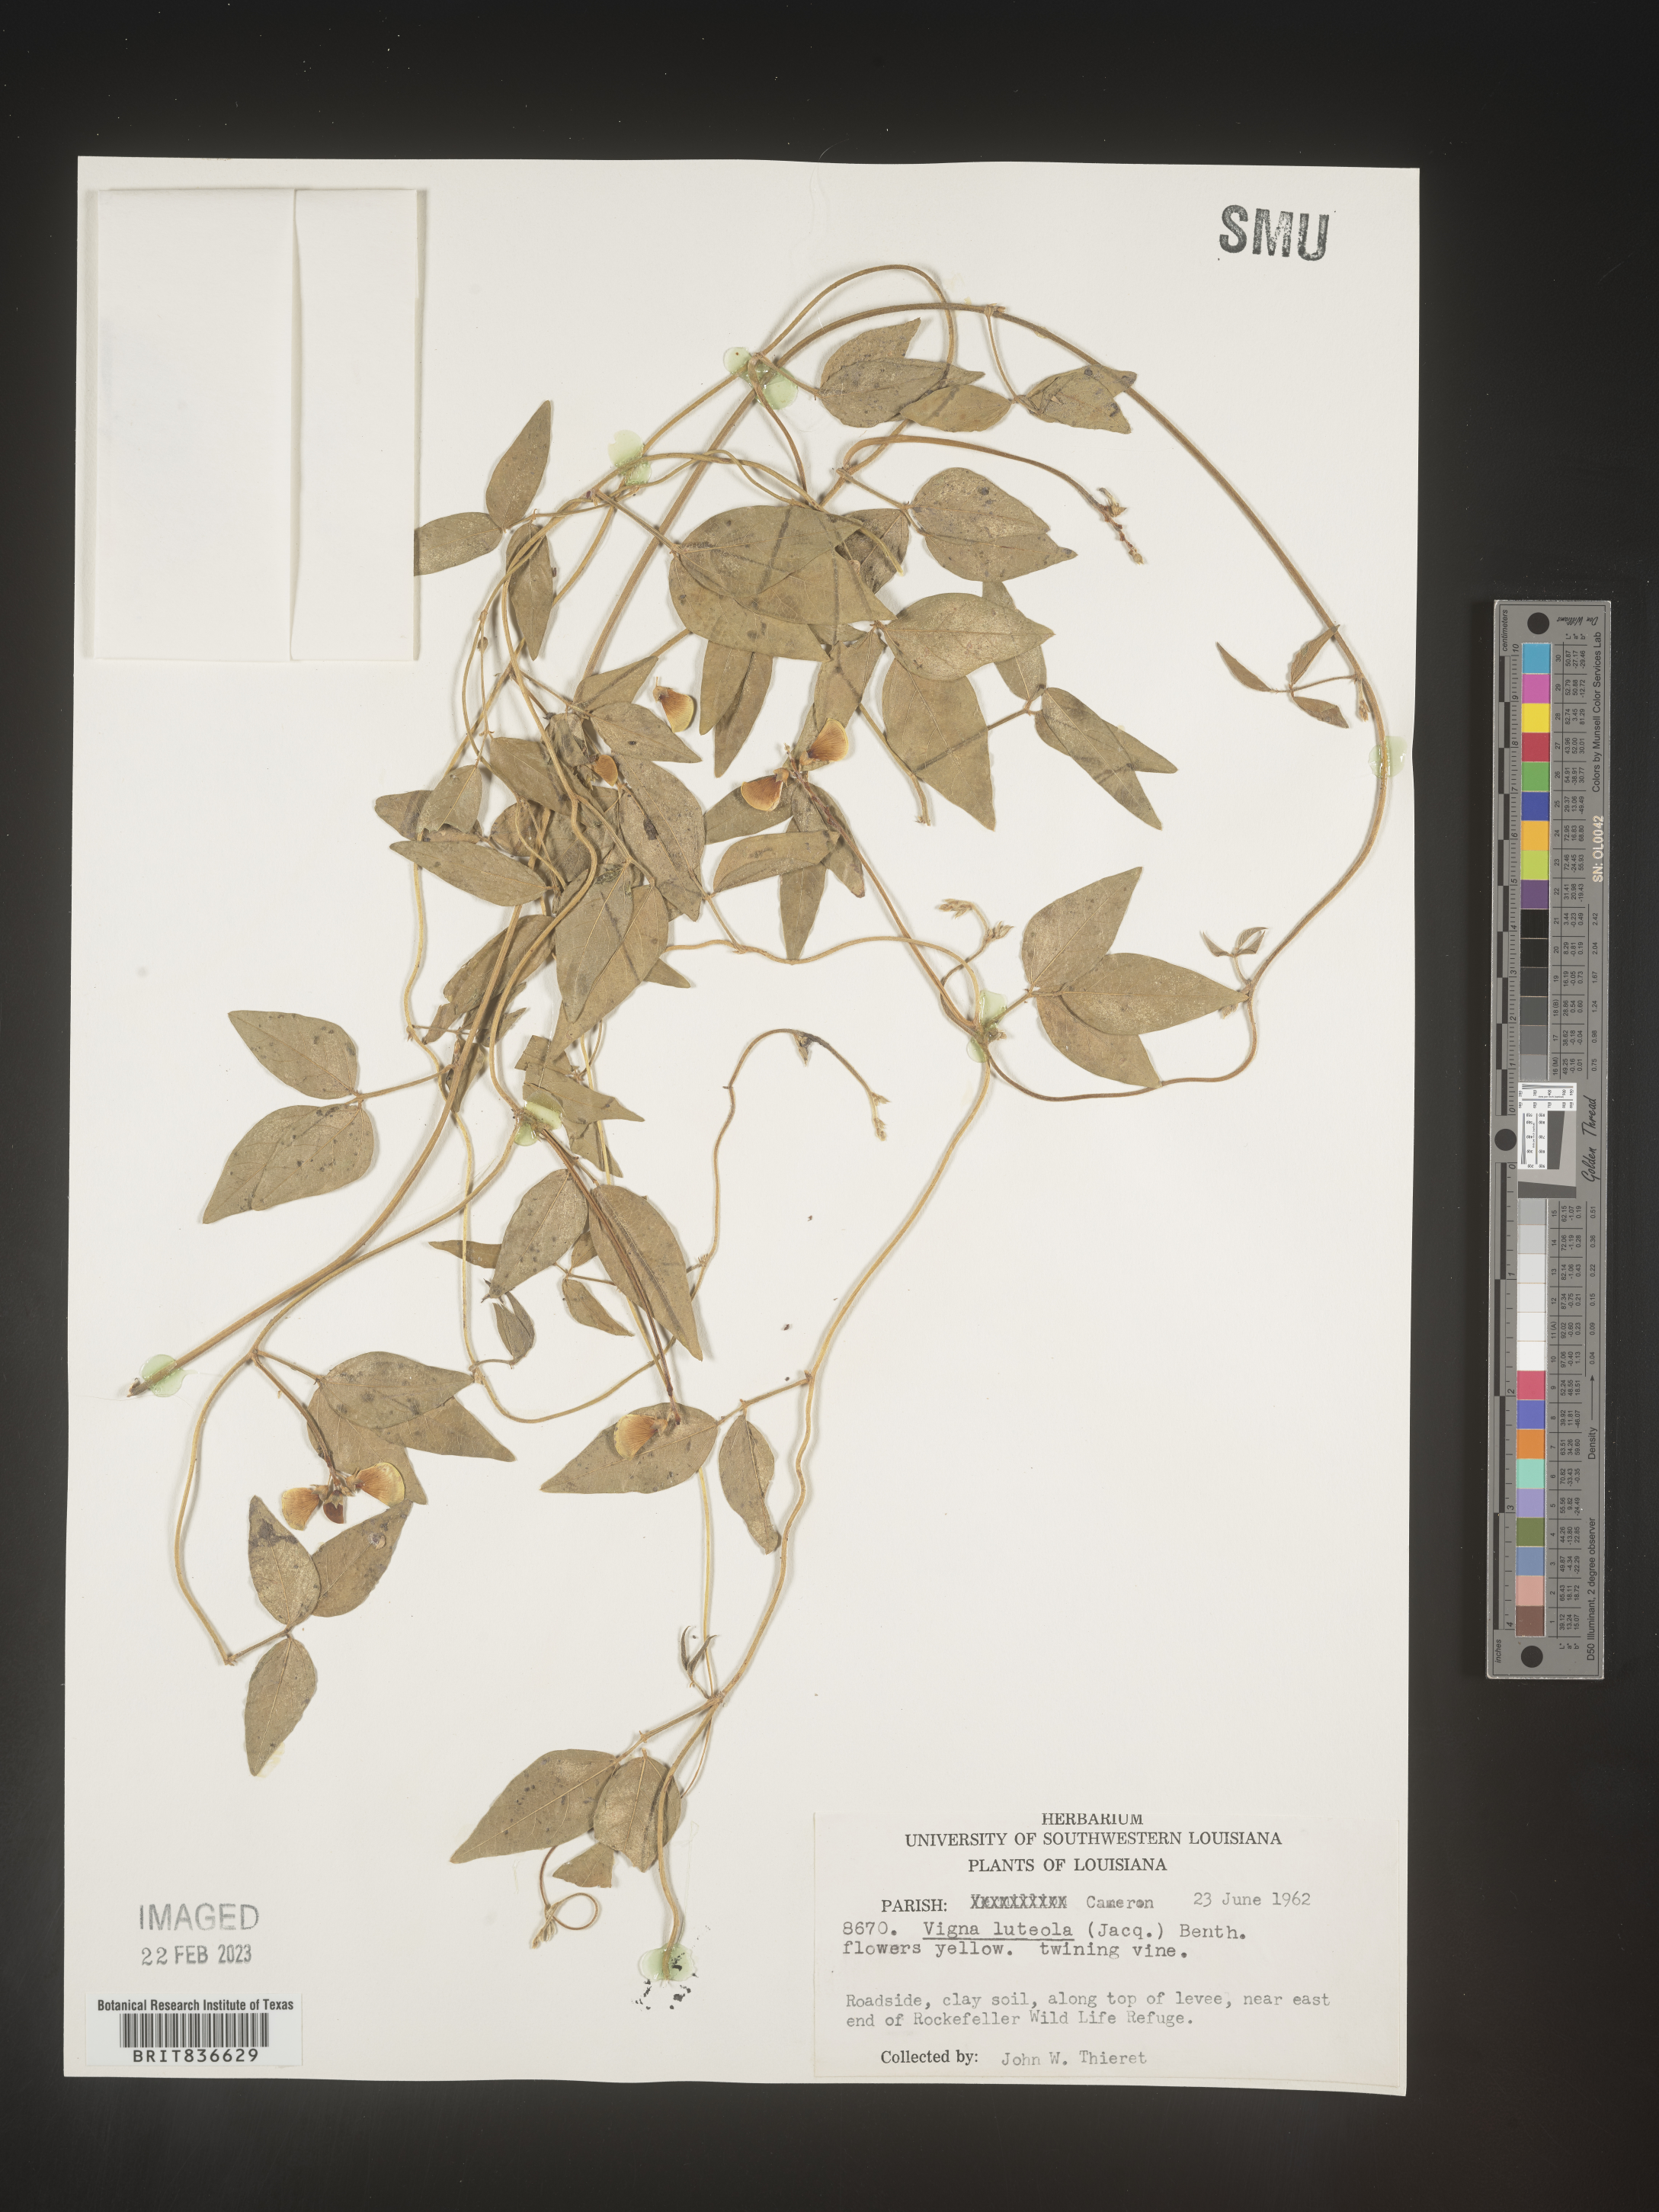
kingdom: Plantae
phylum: Tracheophyta
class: Magnoliopsida
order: Fabales
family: Fabaceae
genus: Vigna
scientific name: Vigna
